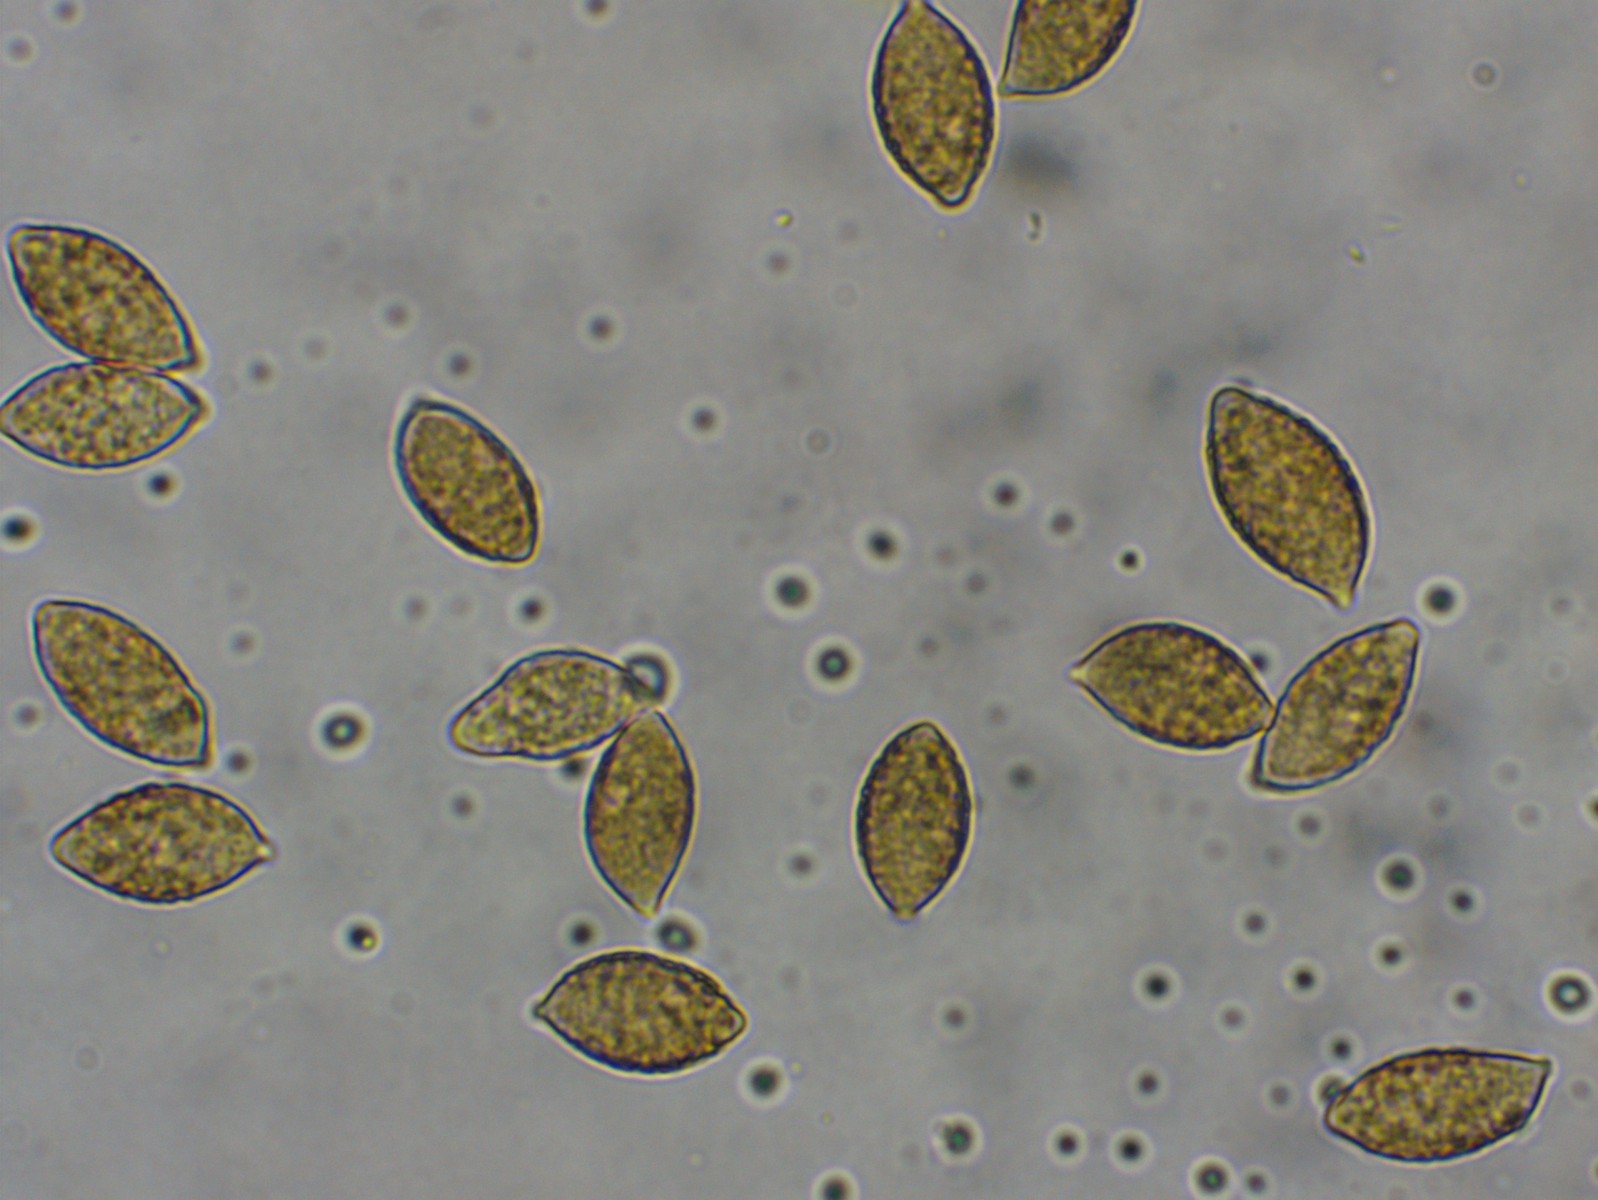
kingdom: Fungi
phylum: Basidiomycota
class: Agaricomycetes
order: Agaricales
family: Hymenogastraceae
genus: Naucoria
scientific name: Naucoria salicis
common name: pile-knaphat
